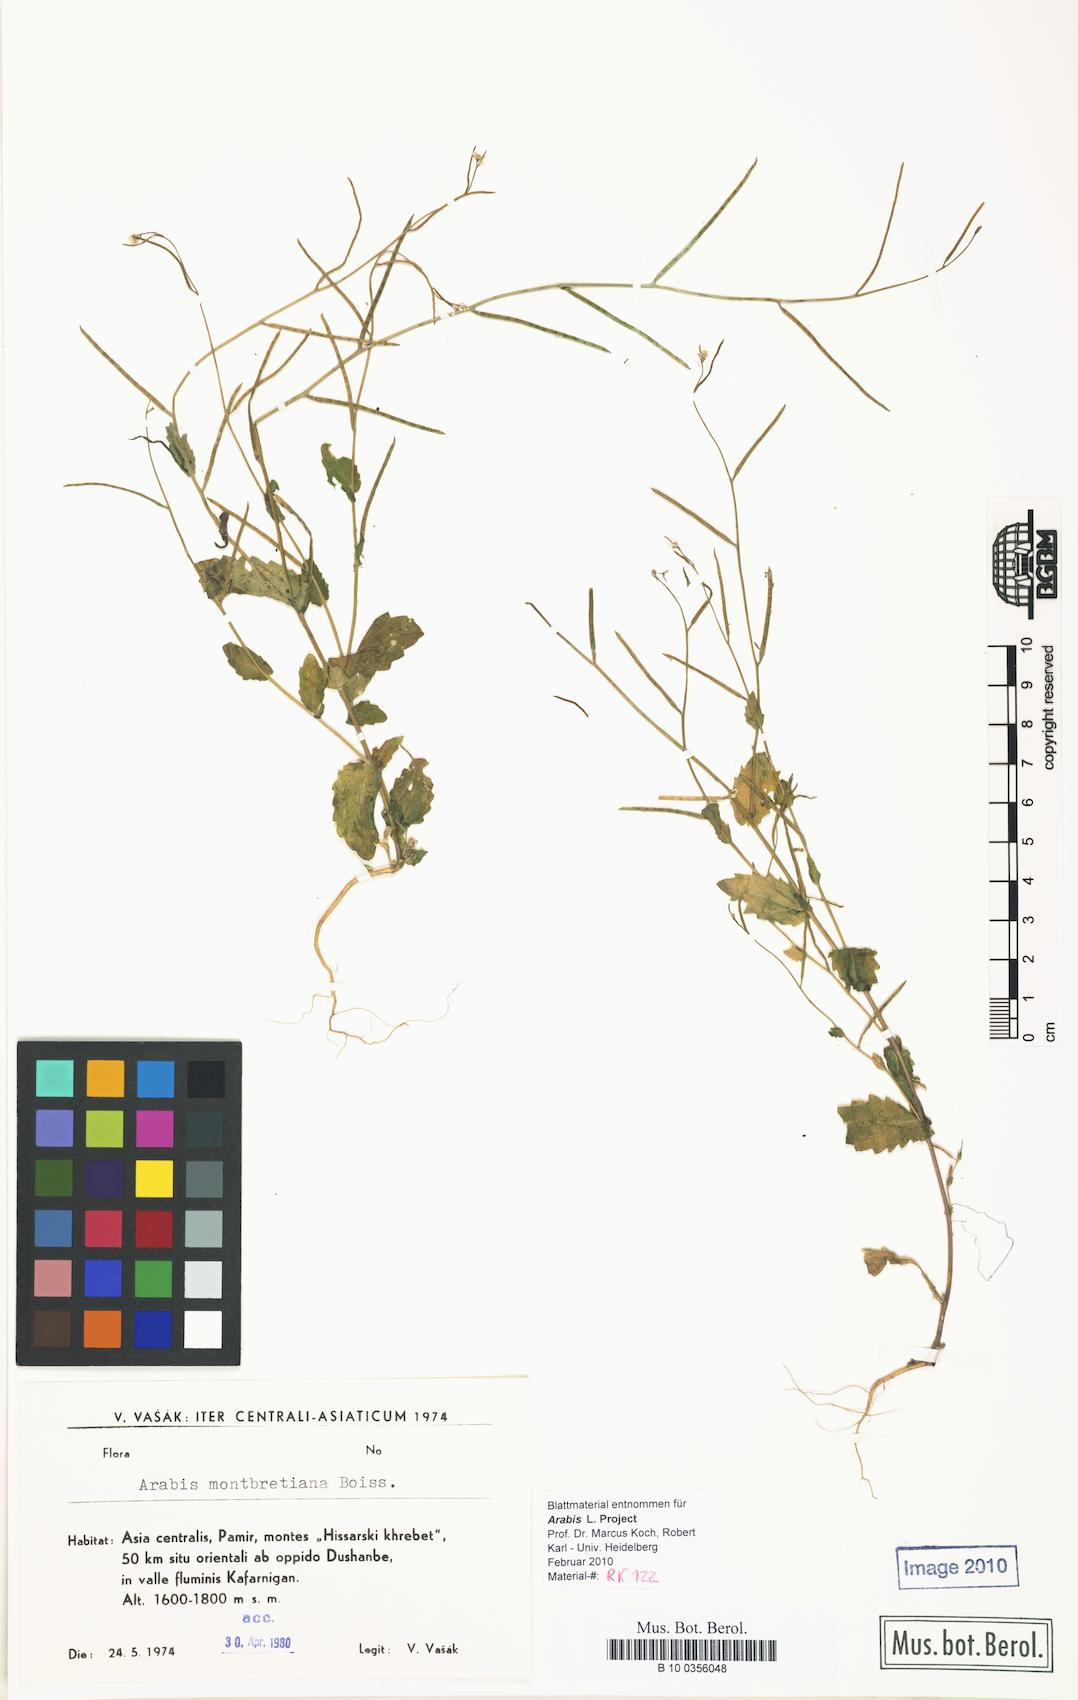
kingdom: Plantae
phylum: Tracheophyta
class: Magnoliopsida
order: Brassicales
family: Brassicaceae
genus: Arabis
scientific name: Arabis nova
